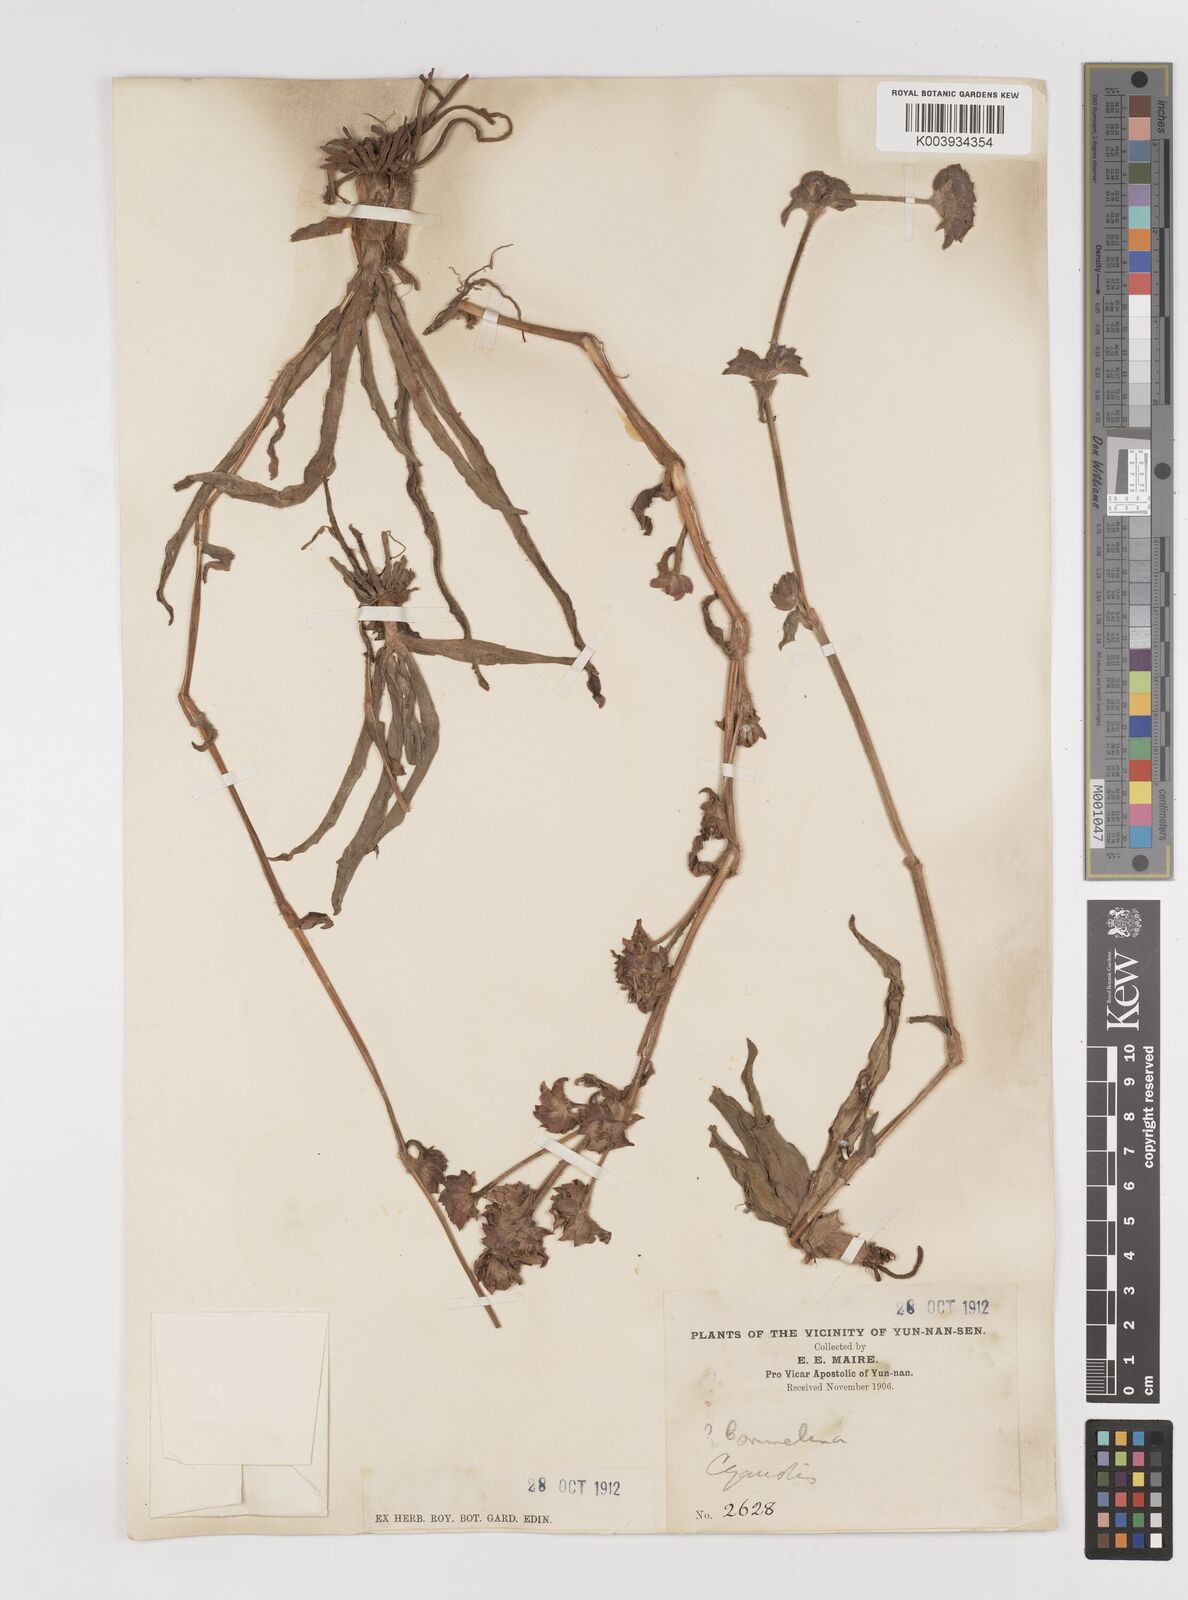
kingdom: Plantae
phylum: Tracheophyta
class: Liliopsida
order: Commelinales
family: Commelinaceae
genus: Cyanotis
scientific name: Cyanotis arachnoidea
